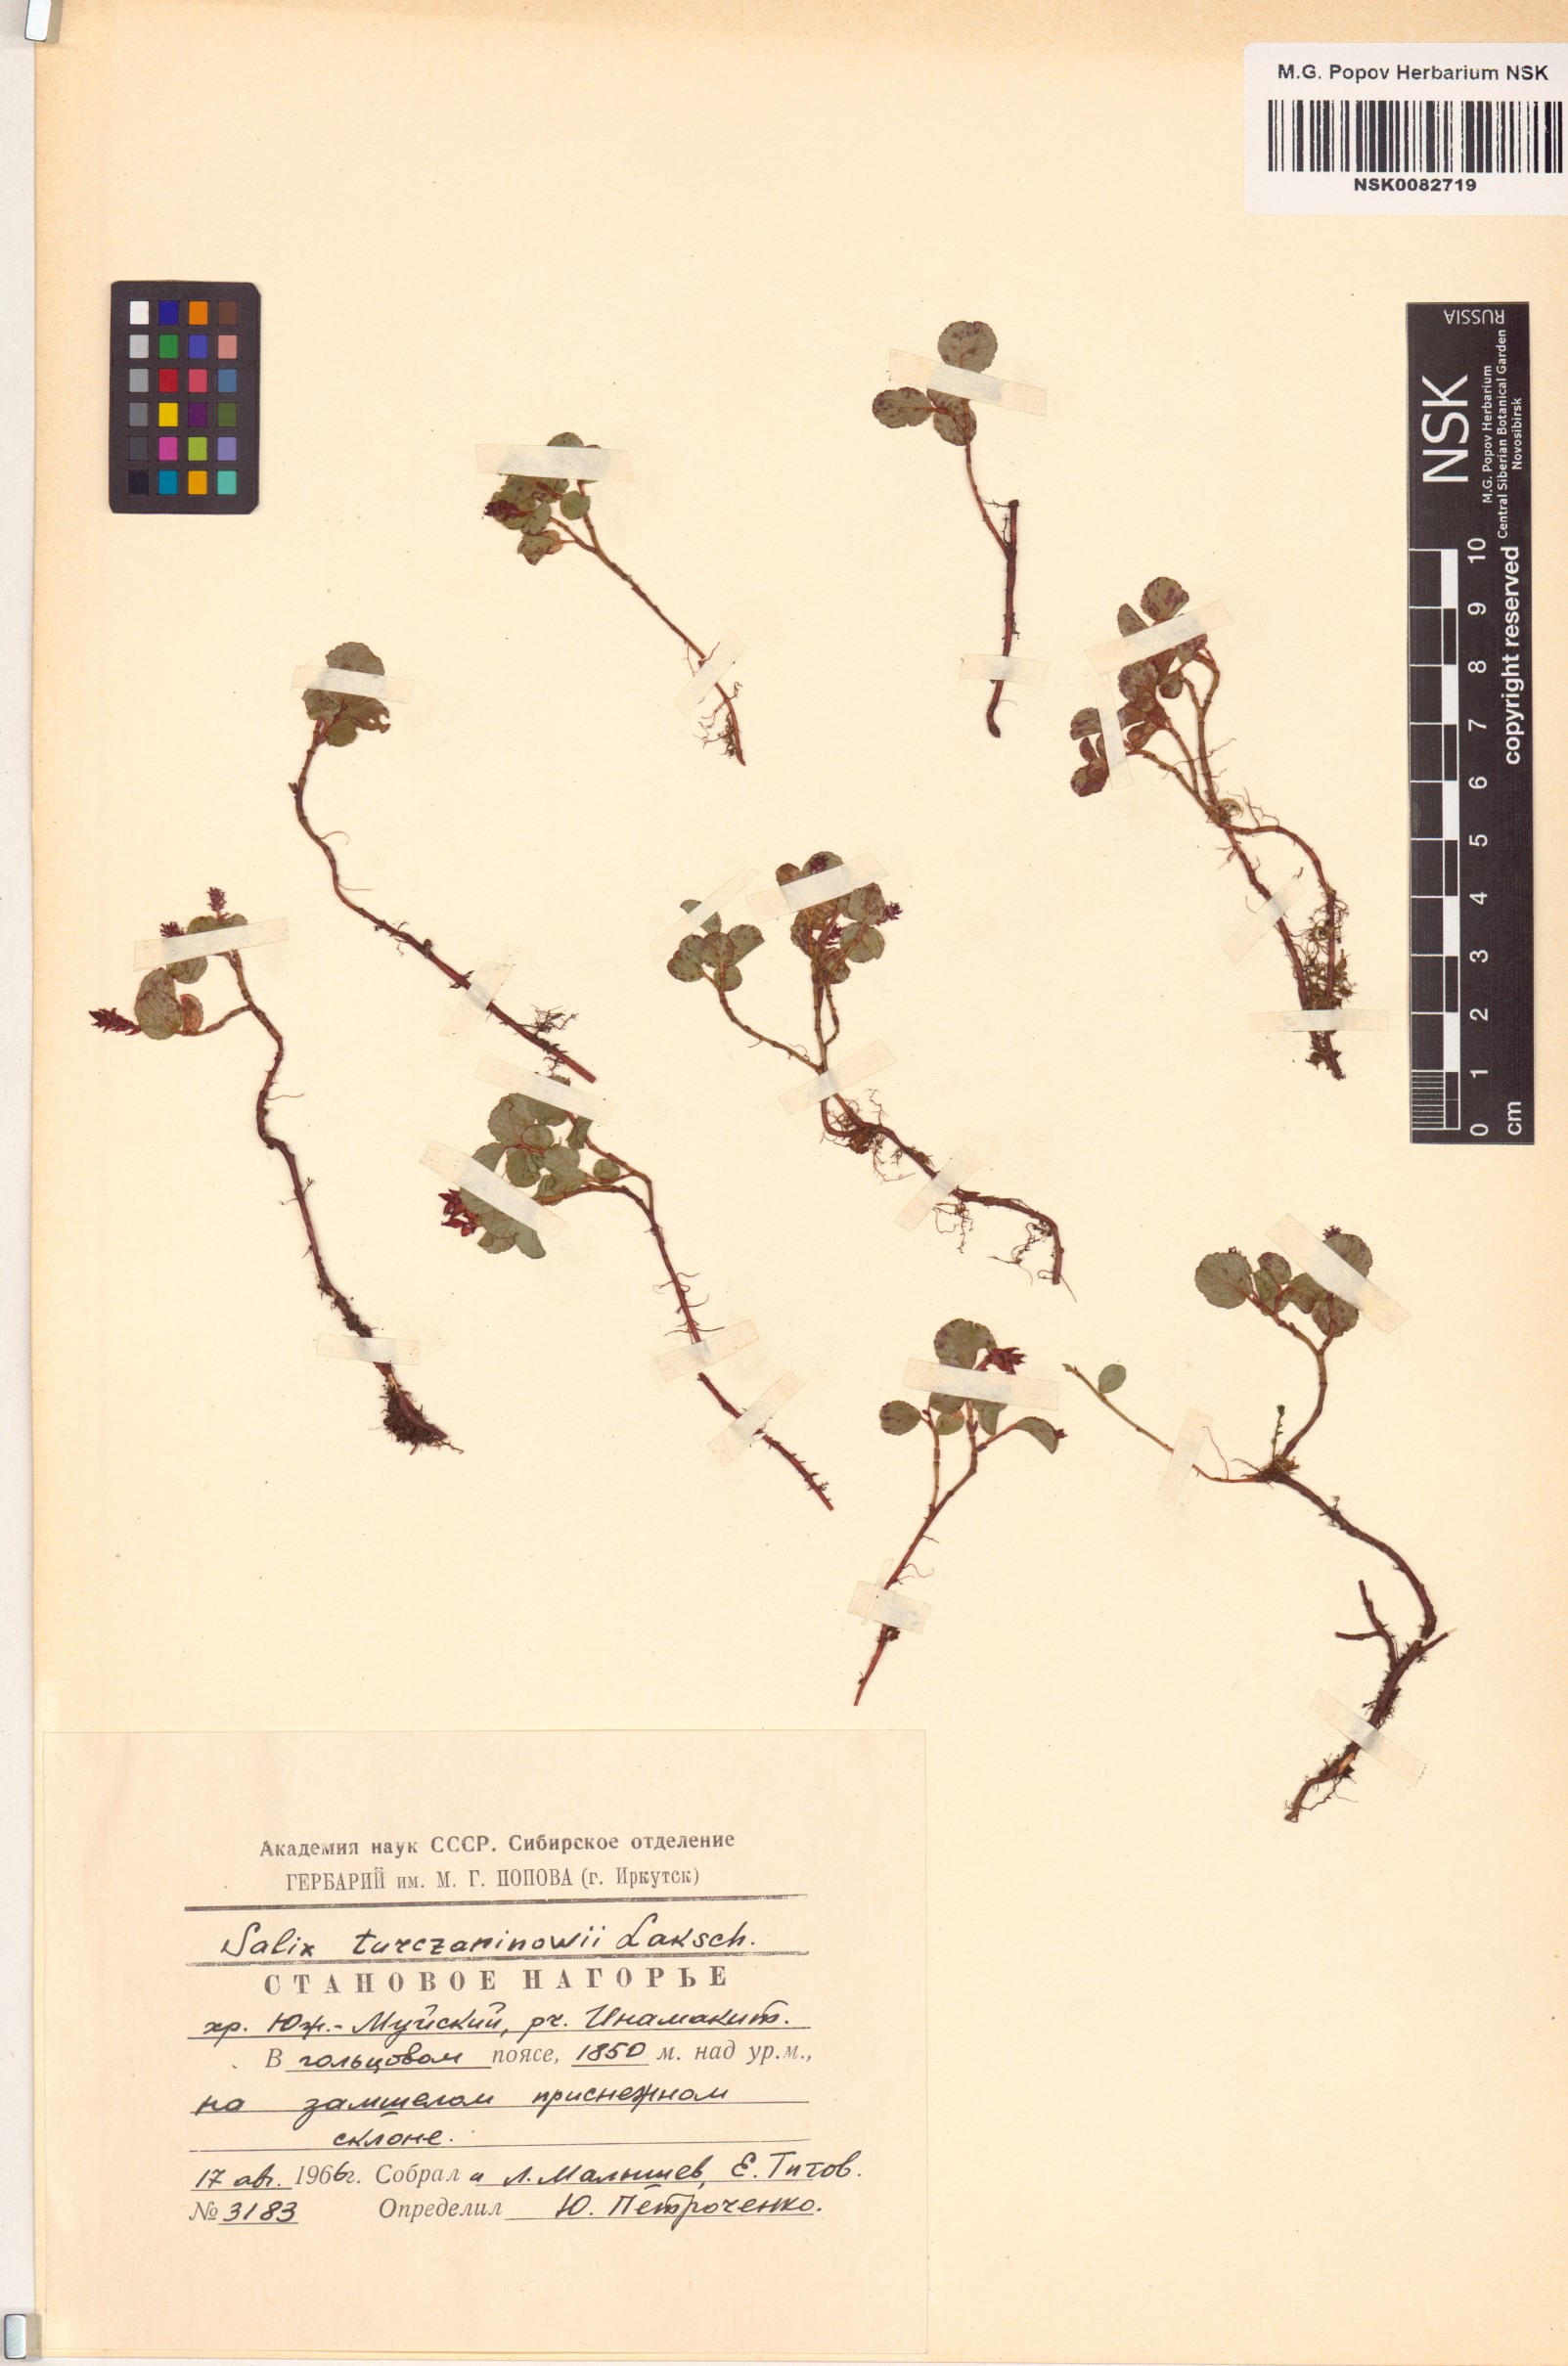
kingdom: Plantae
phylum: Tracheophyta
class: Magnoliopsida
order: Malpighiales
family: Salicaceae
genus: Salix
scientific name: Salix turczaninowii
